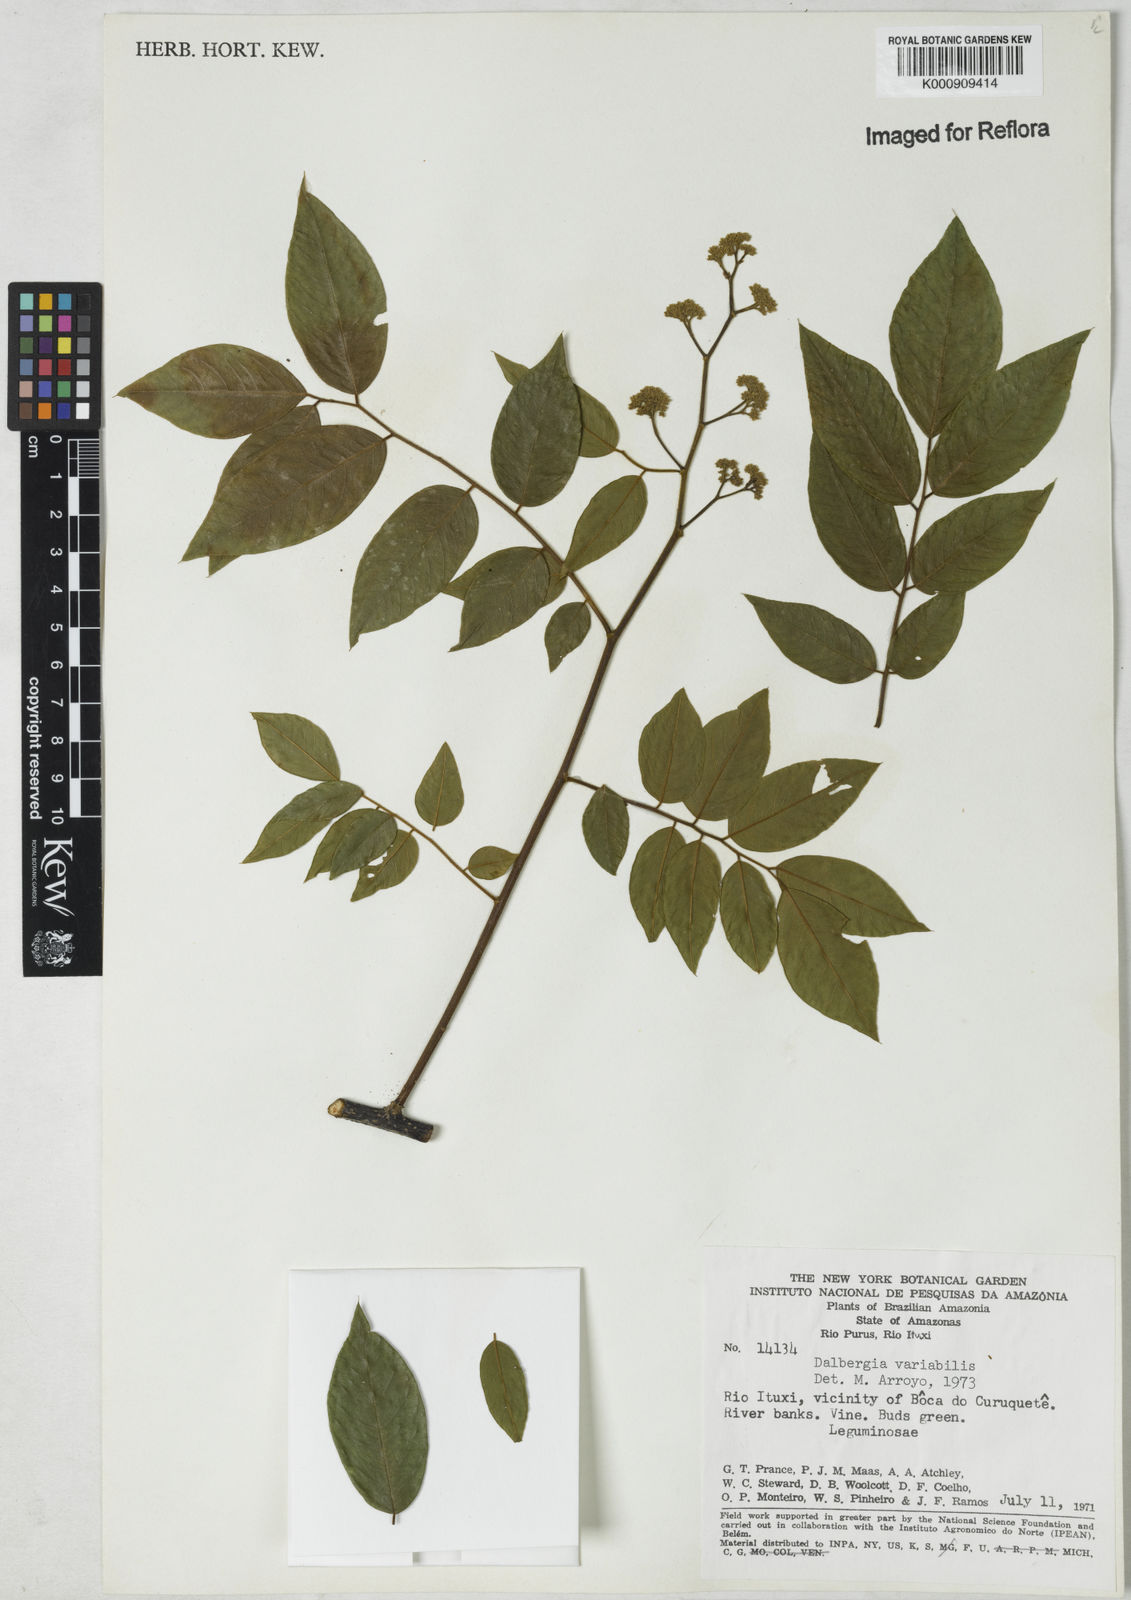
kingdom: Plantae
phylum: Tracheophyta
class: Magnoliopsida
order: Fabales
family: Fabaceae
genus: Dalbergia
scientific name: Dalbergia
